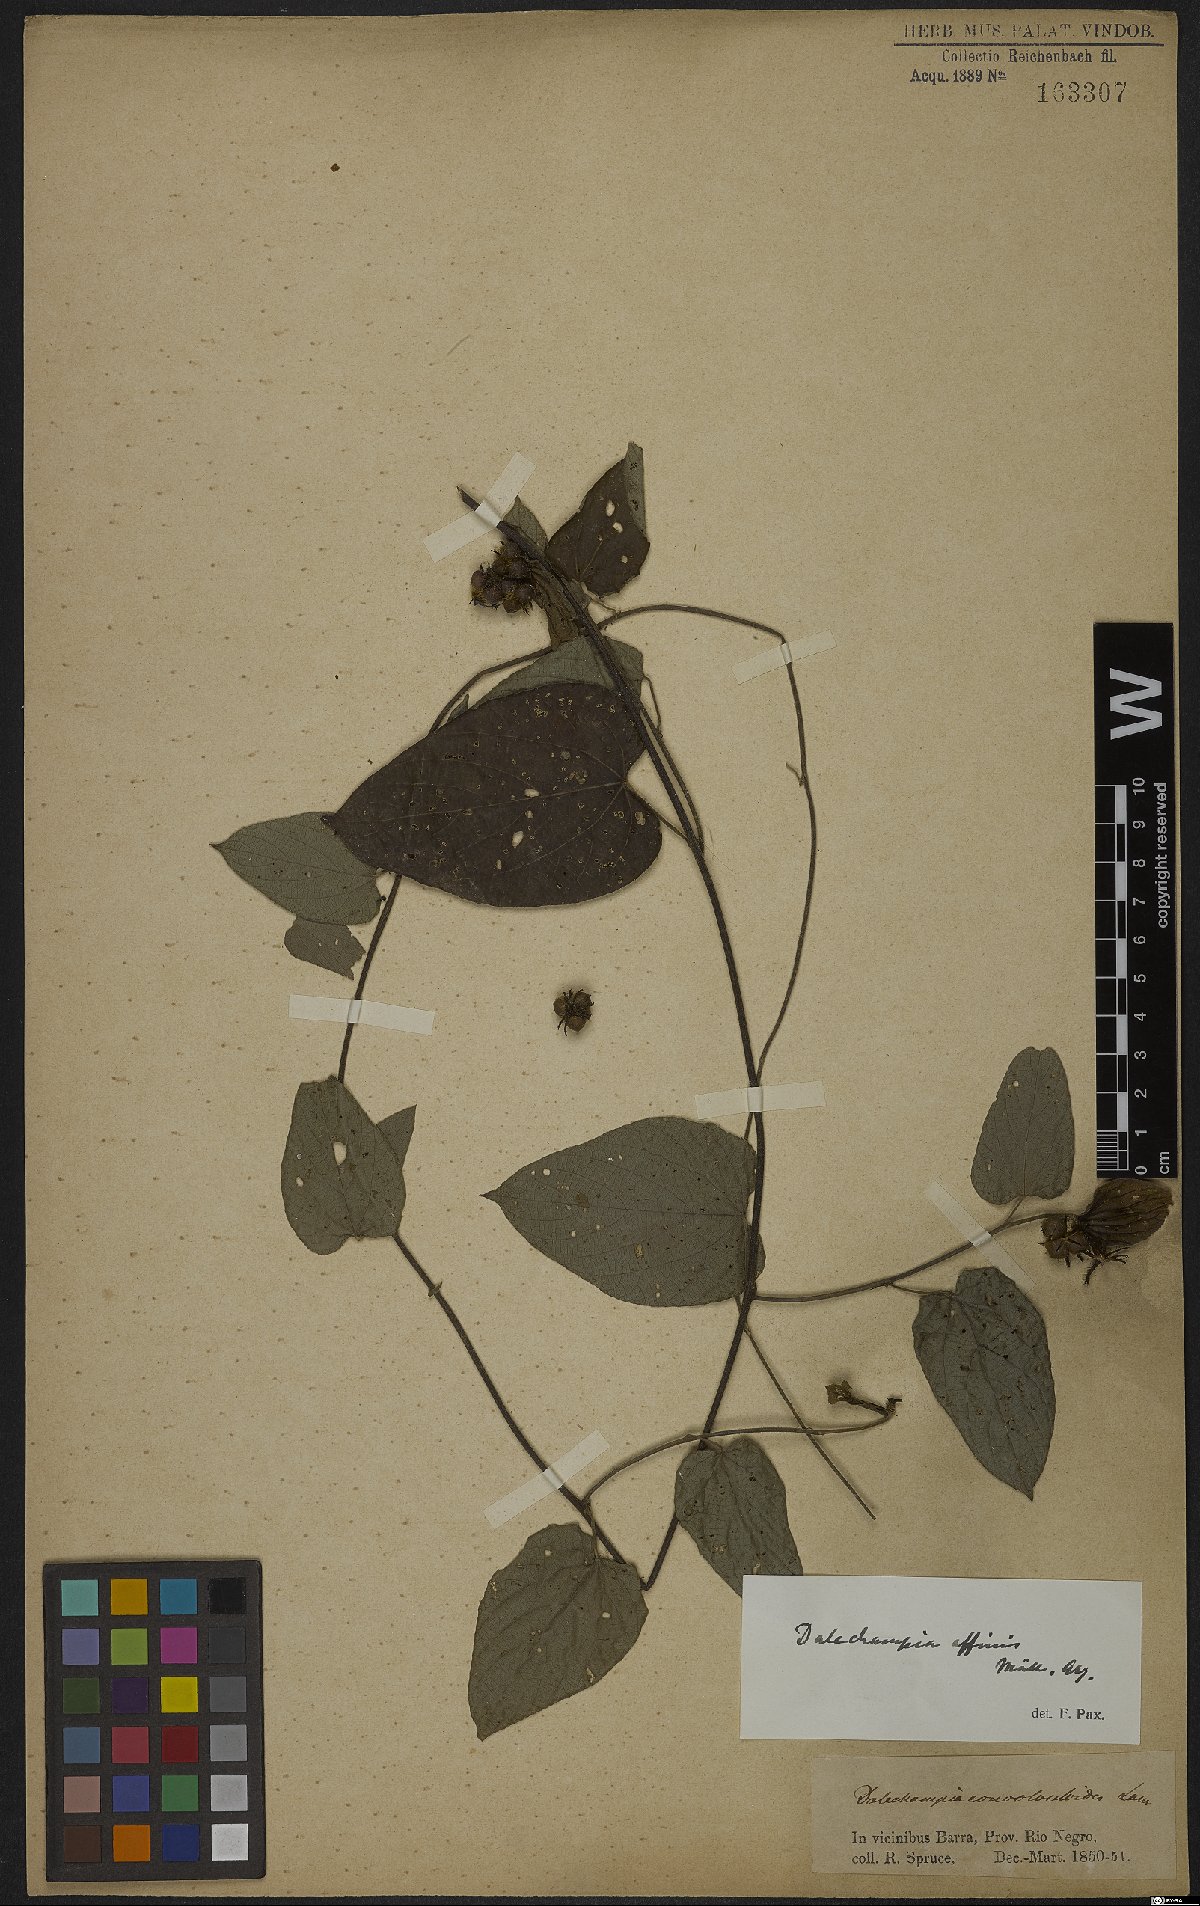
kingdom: Plantae
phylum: Tracheophyta
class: Magnoliopsida
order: Malpighiales
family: Euphorbiaceae
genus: Dalechampia
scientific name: Dalechampia affinis
